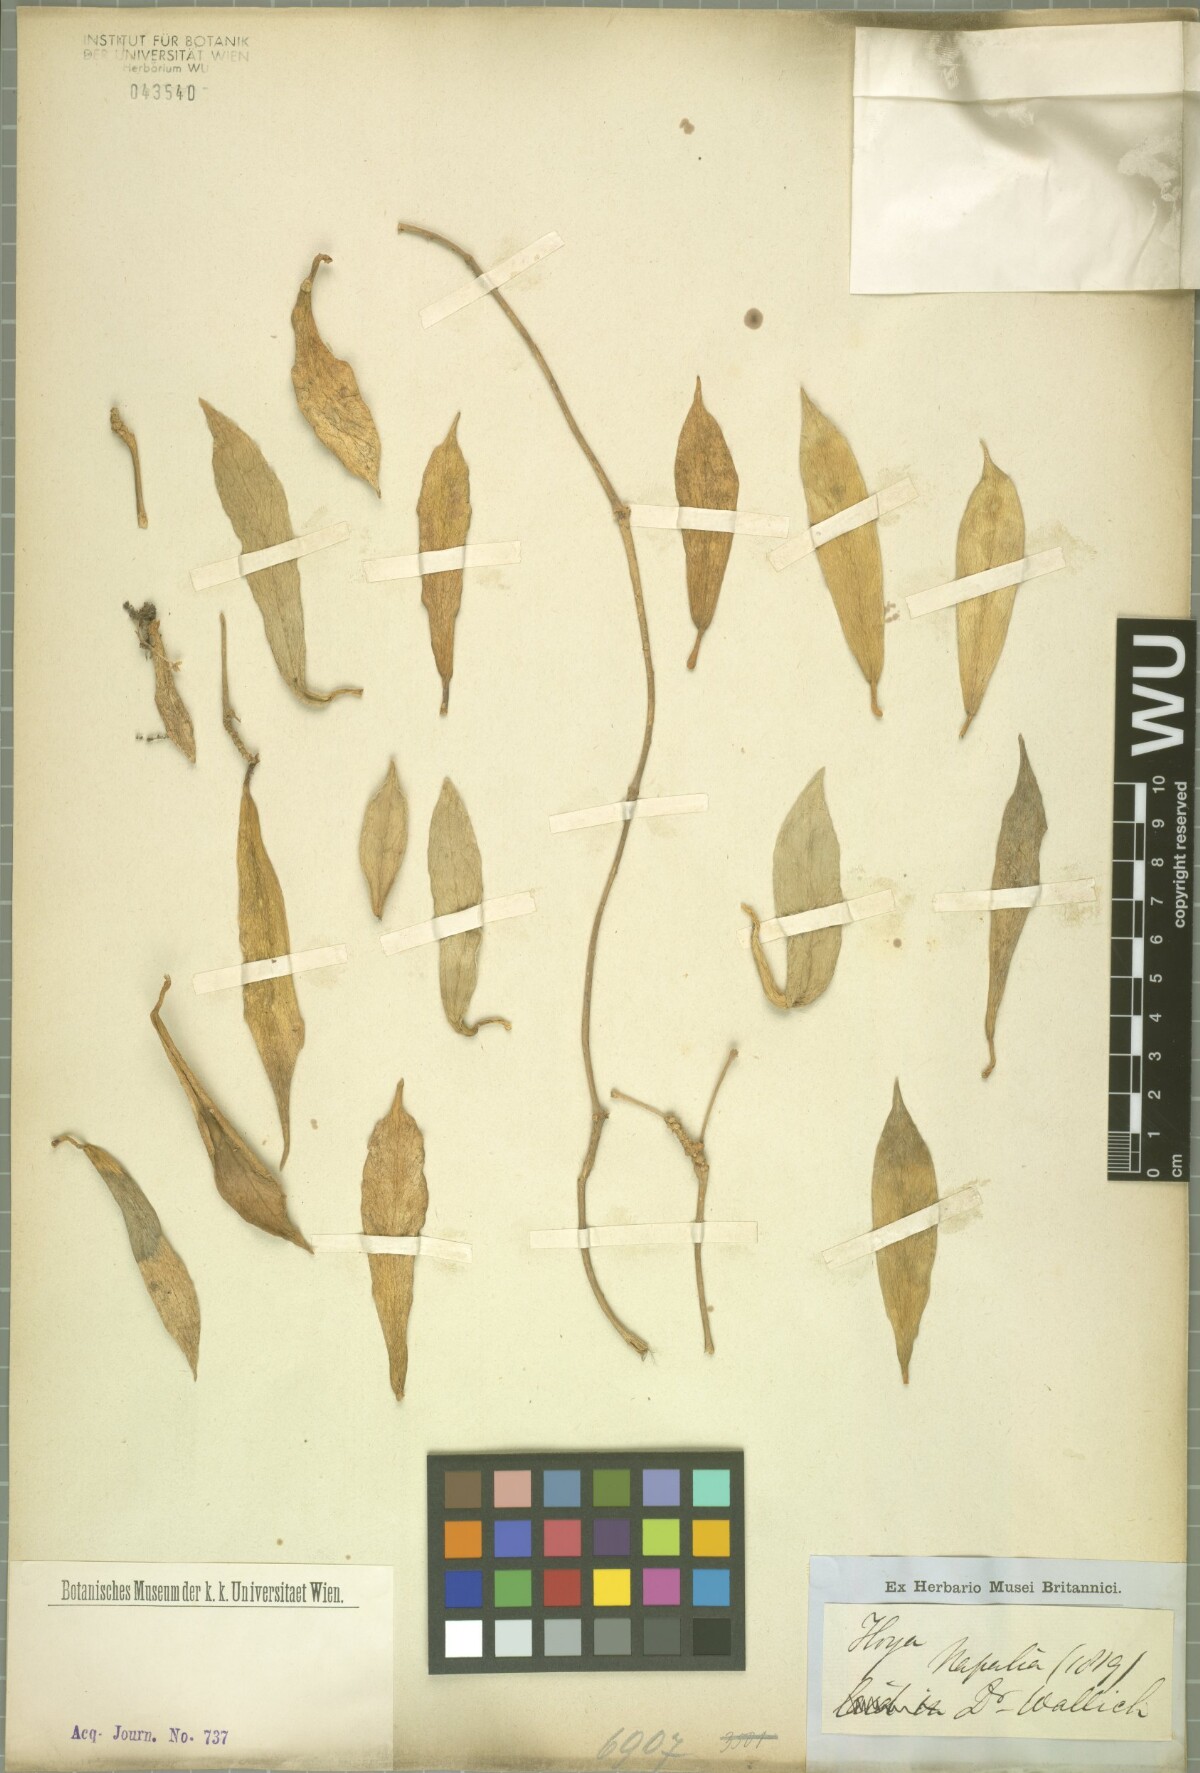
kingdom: Plantae
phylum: Tracheophyta
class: Magnoliopsida
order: Gentianales
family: Apocynaceae
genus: Hoya
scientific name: Hoya
